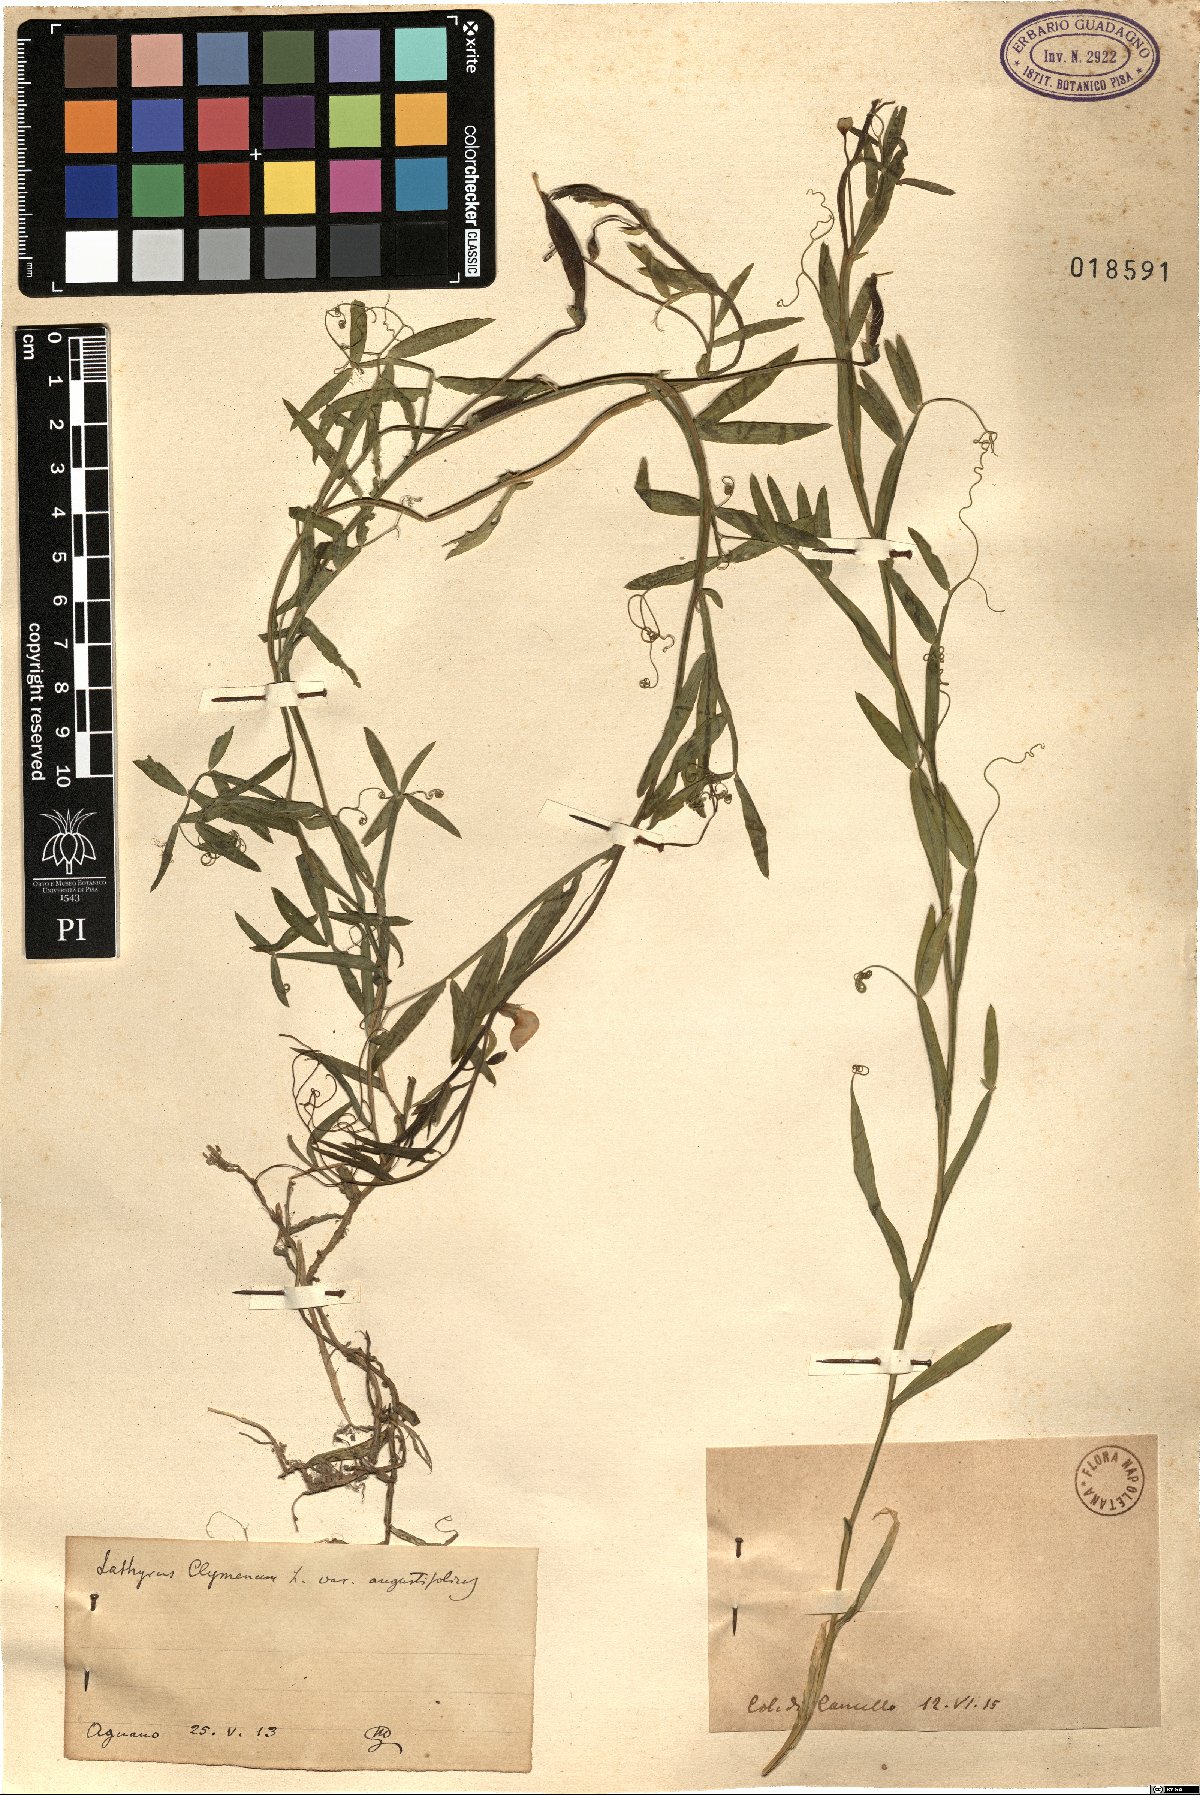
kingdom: Plantae
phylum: Tracheophyta
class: Magnoliopsida
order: Fabales
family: Fabaceae
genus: Lathyrus
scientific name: Lathyrus
